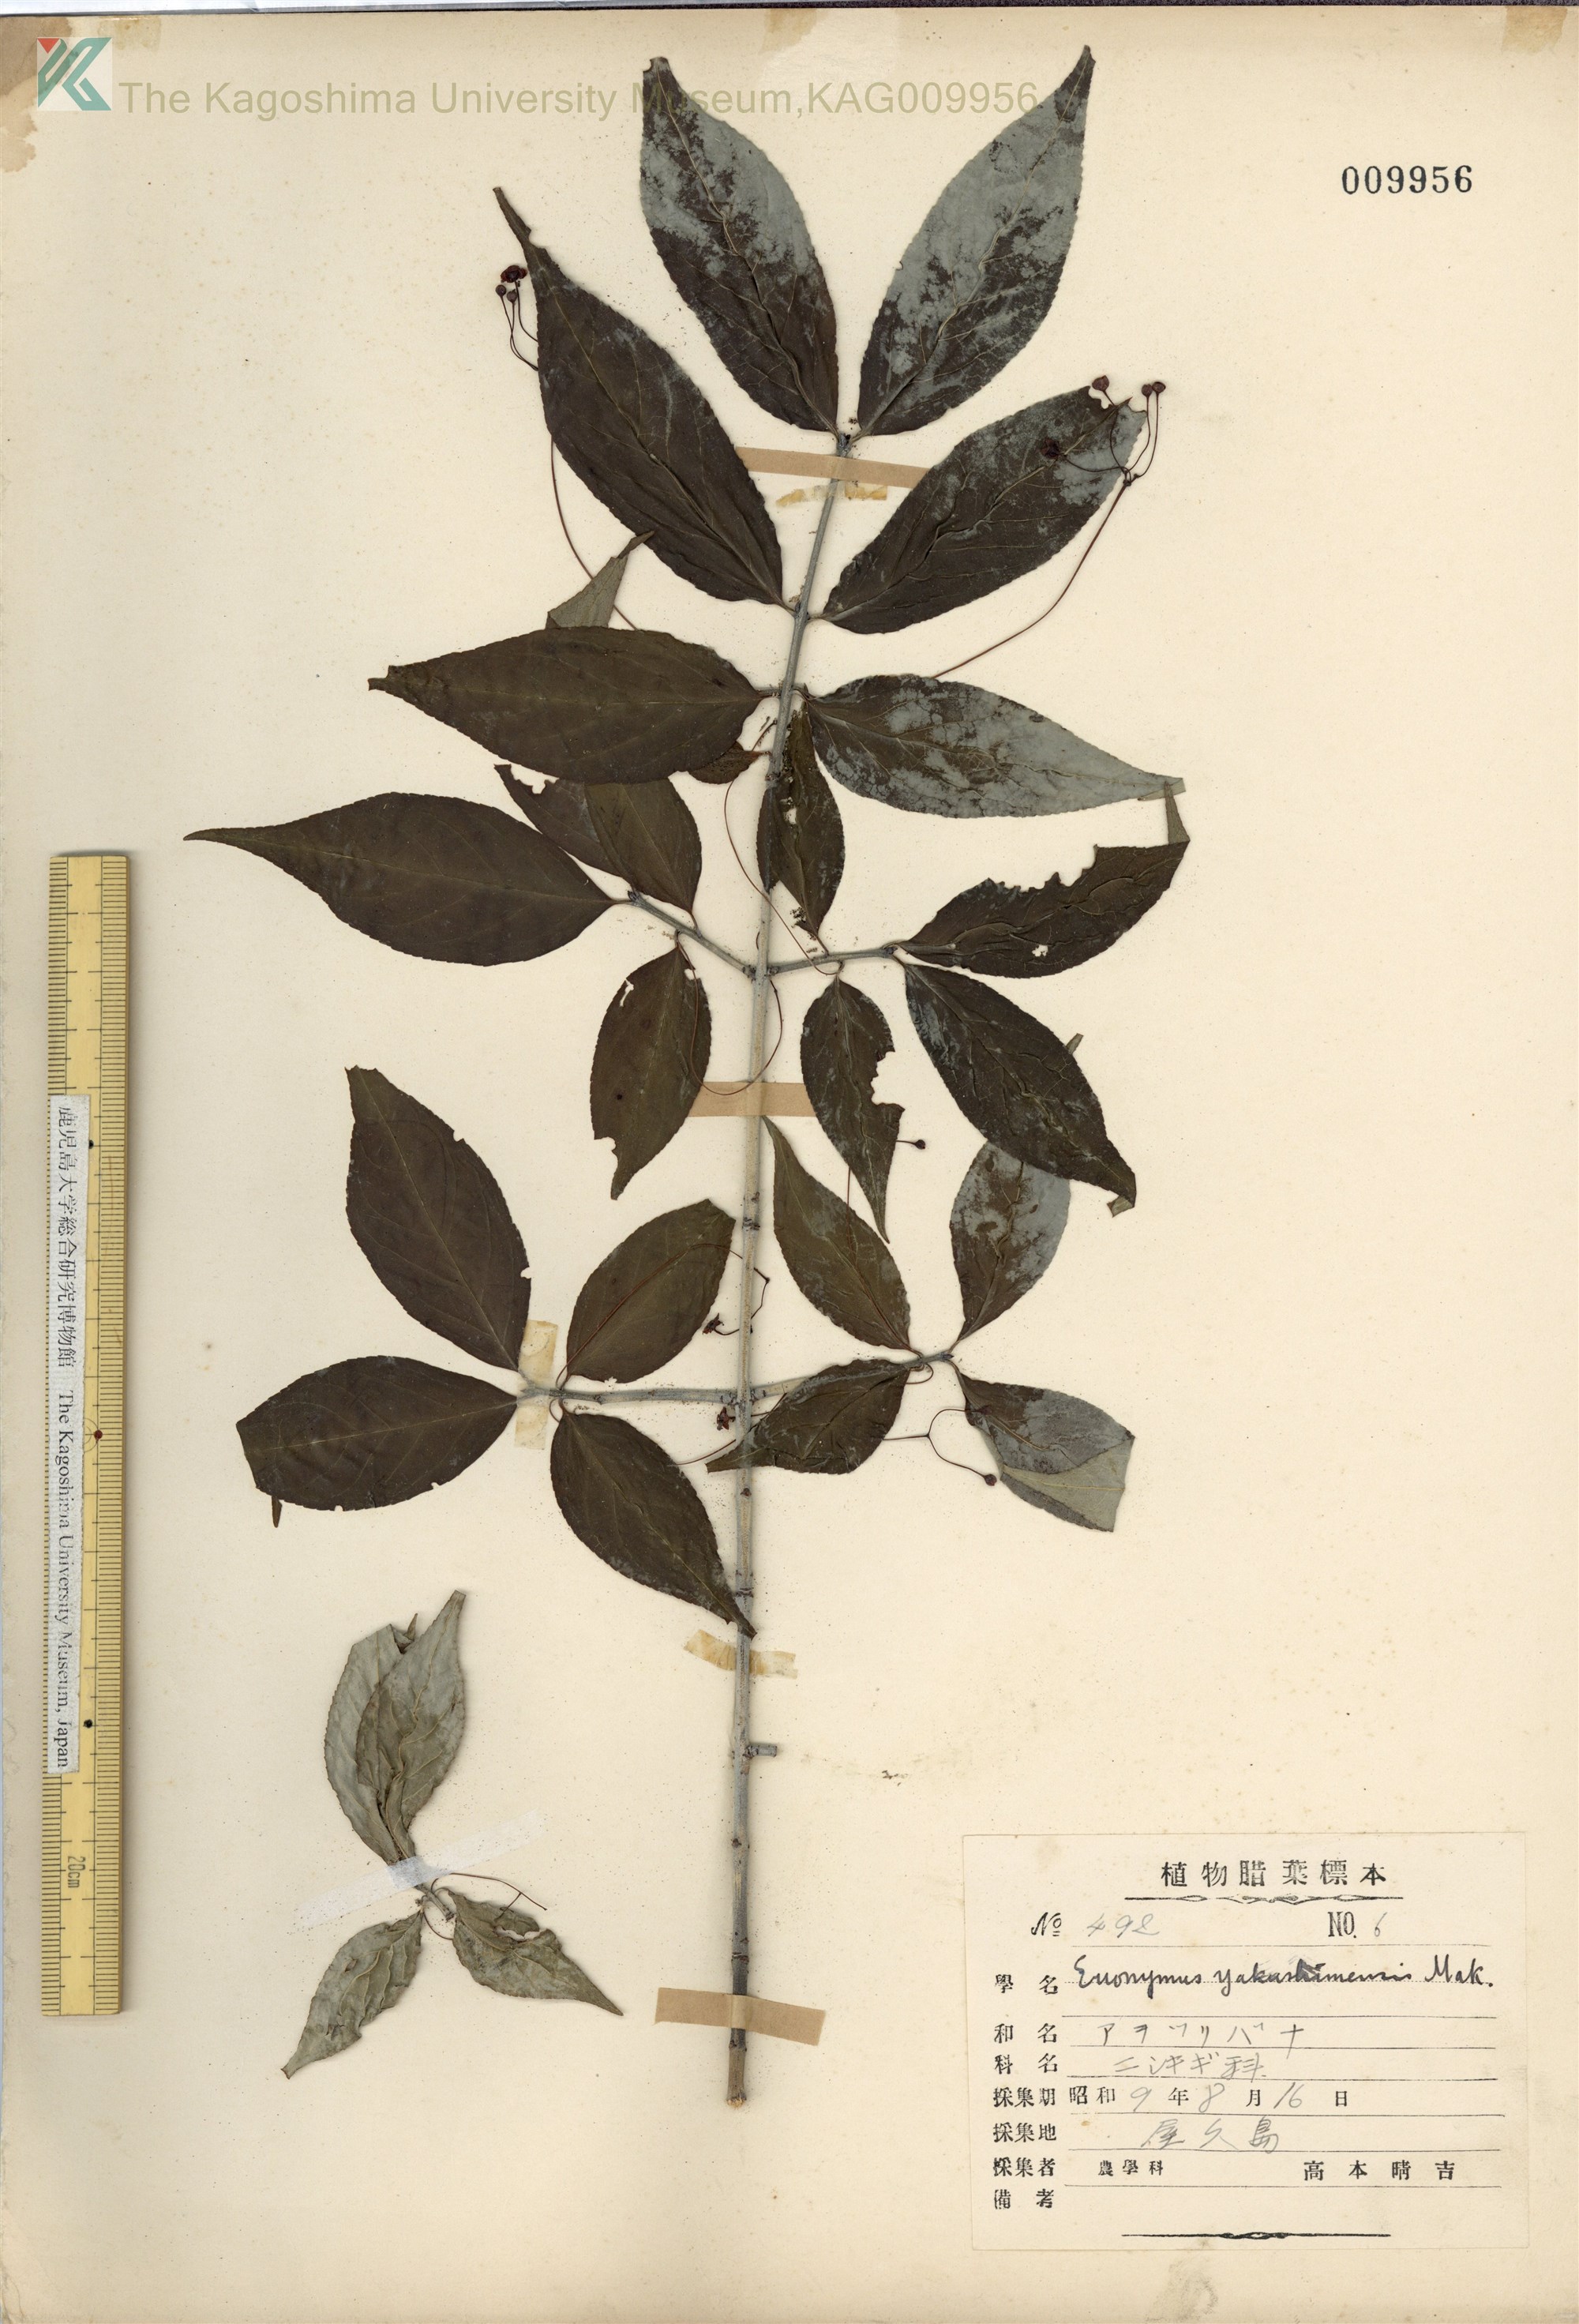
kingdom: Plantae
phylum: Tracheophyta
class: Magnoliopsida
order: Celastrales
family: Celastraceae
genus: Euonymus
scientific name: Euonymus yakushimensis
